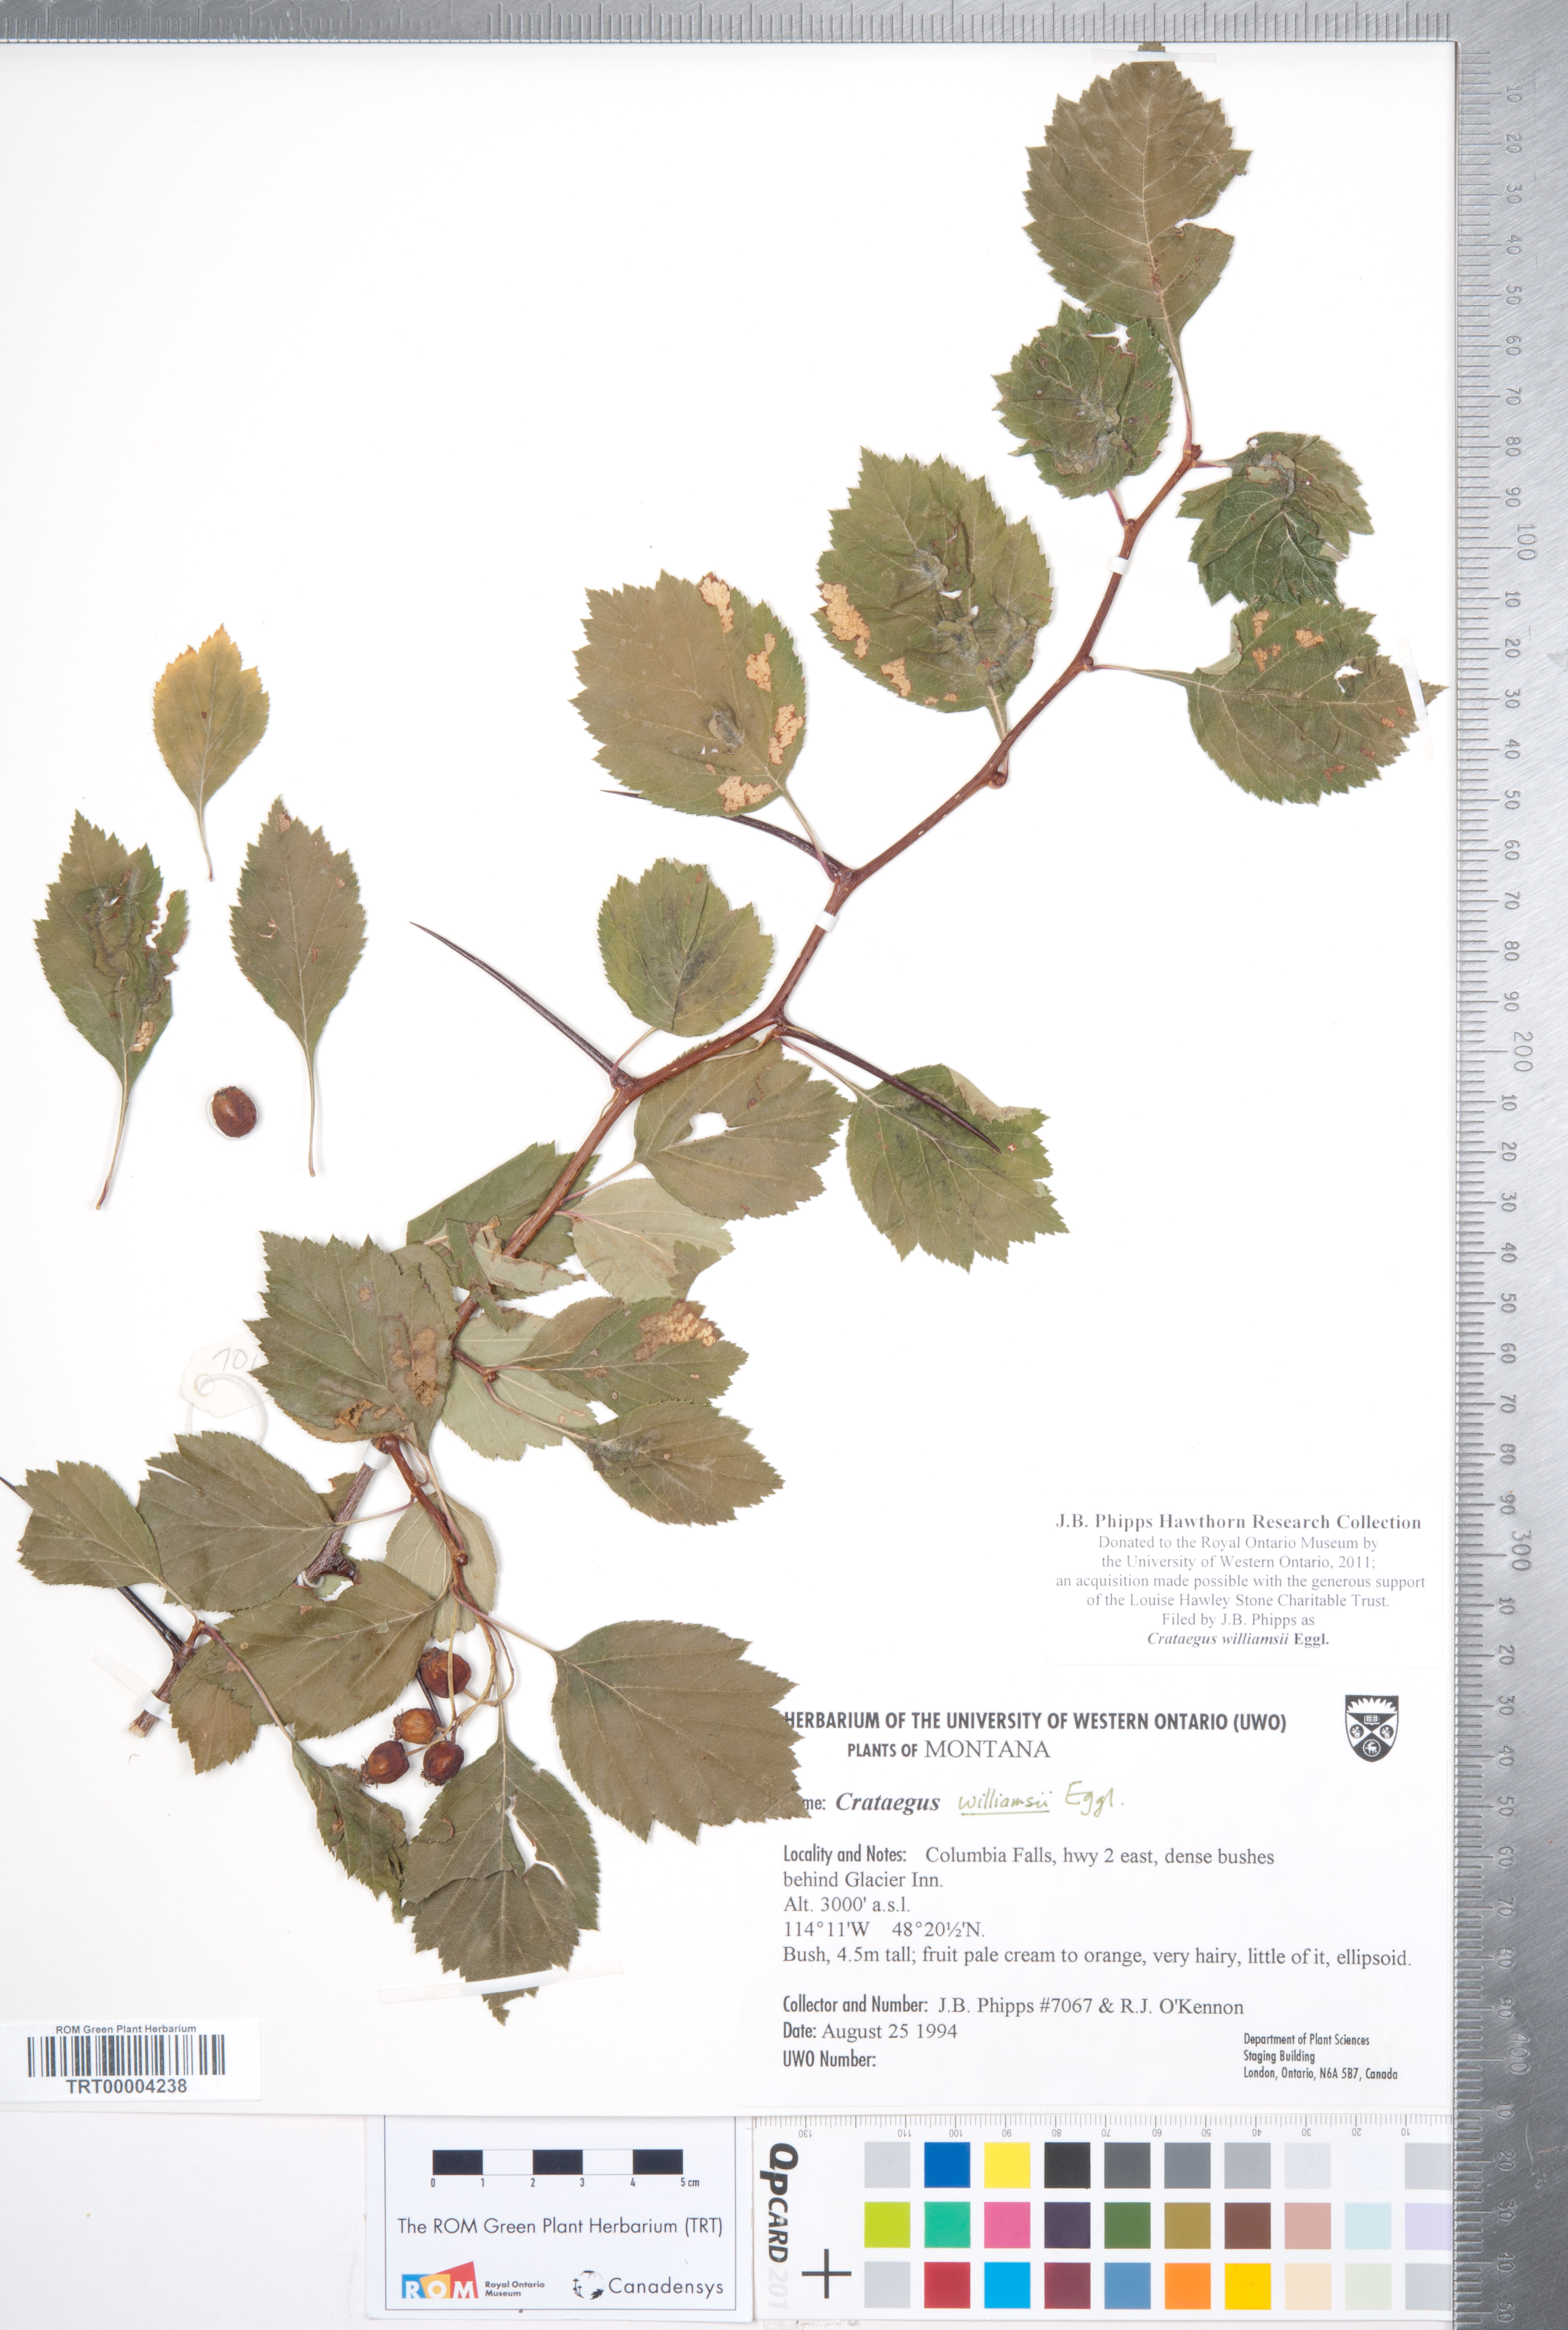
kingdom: Plantae
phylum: Tracheophyta
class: Magnoliopsida
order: Rosales
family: Rosaceae
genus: Crataegus
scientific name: Crataegus williamsii
